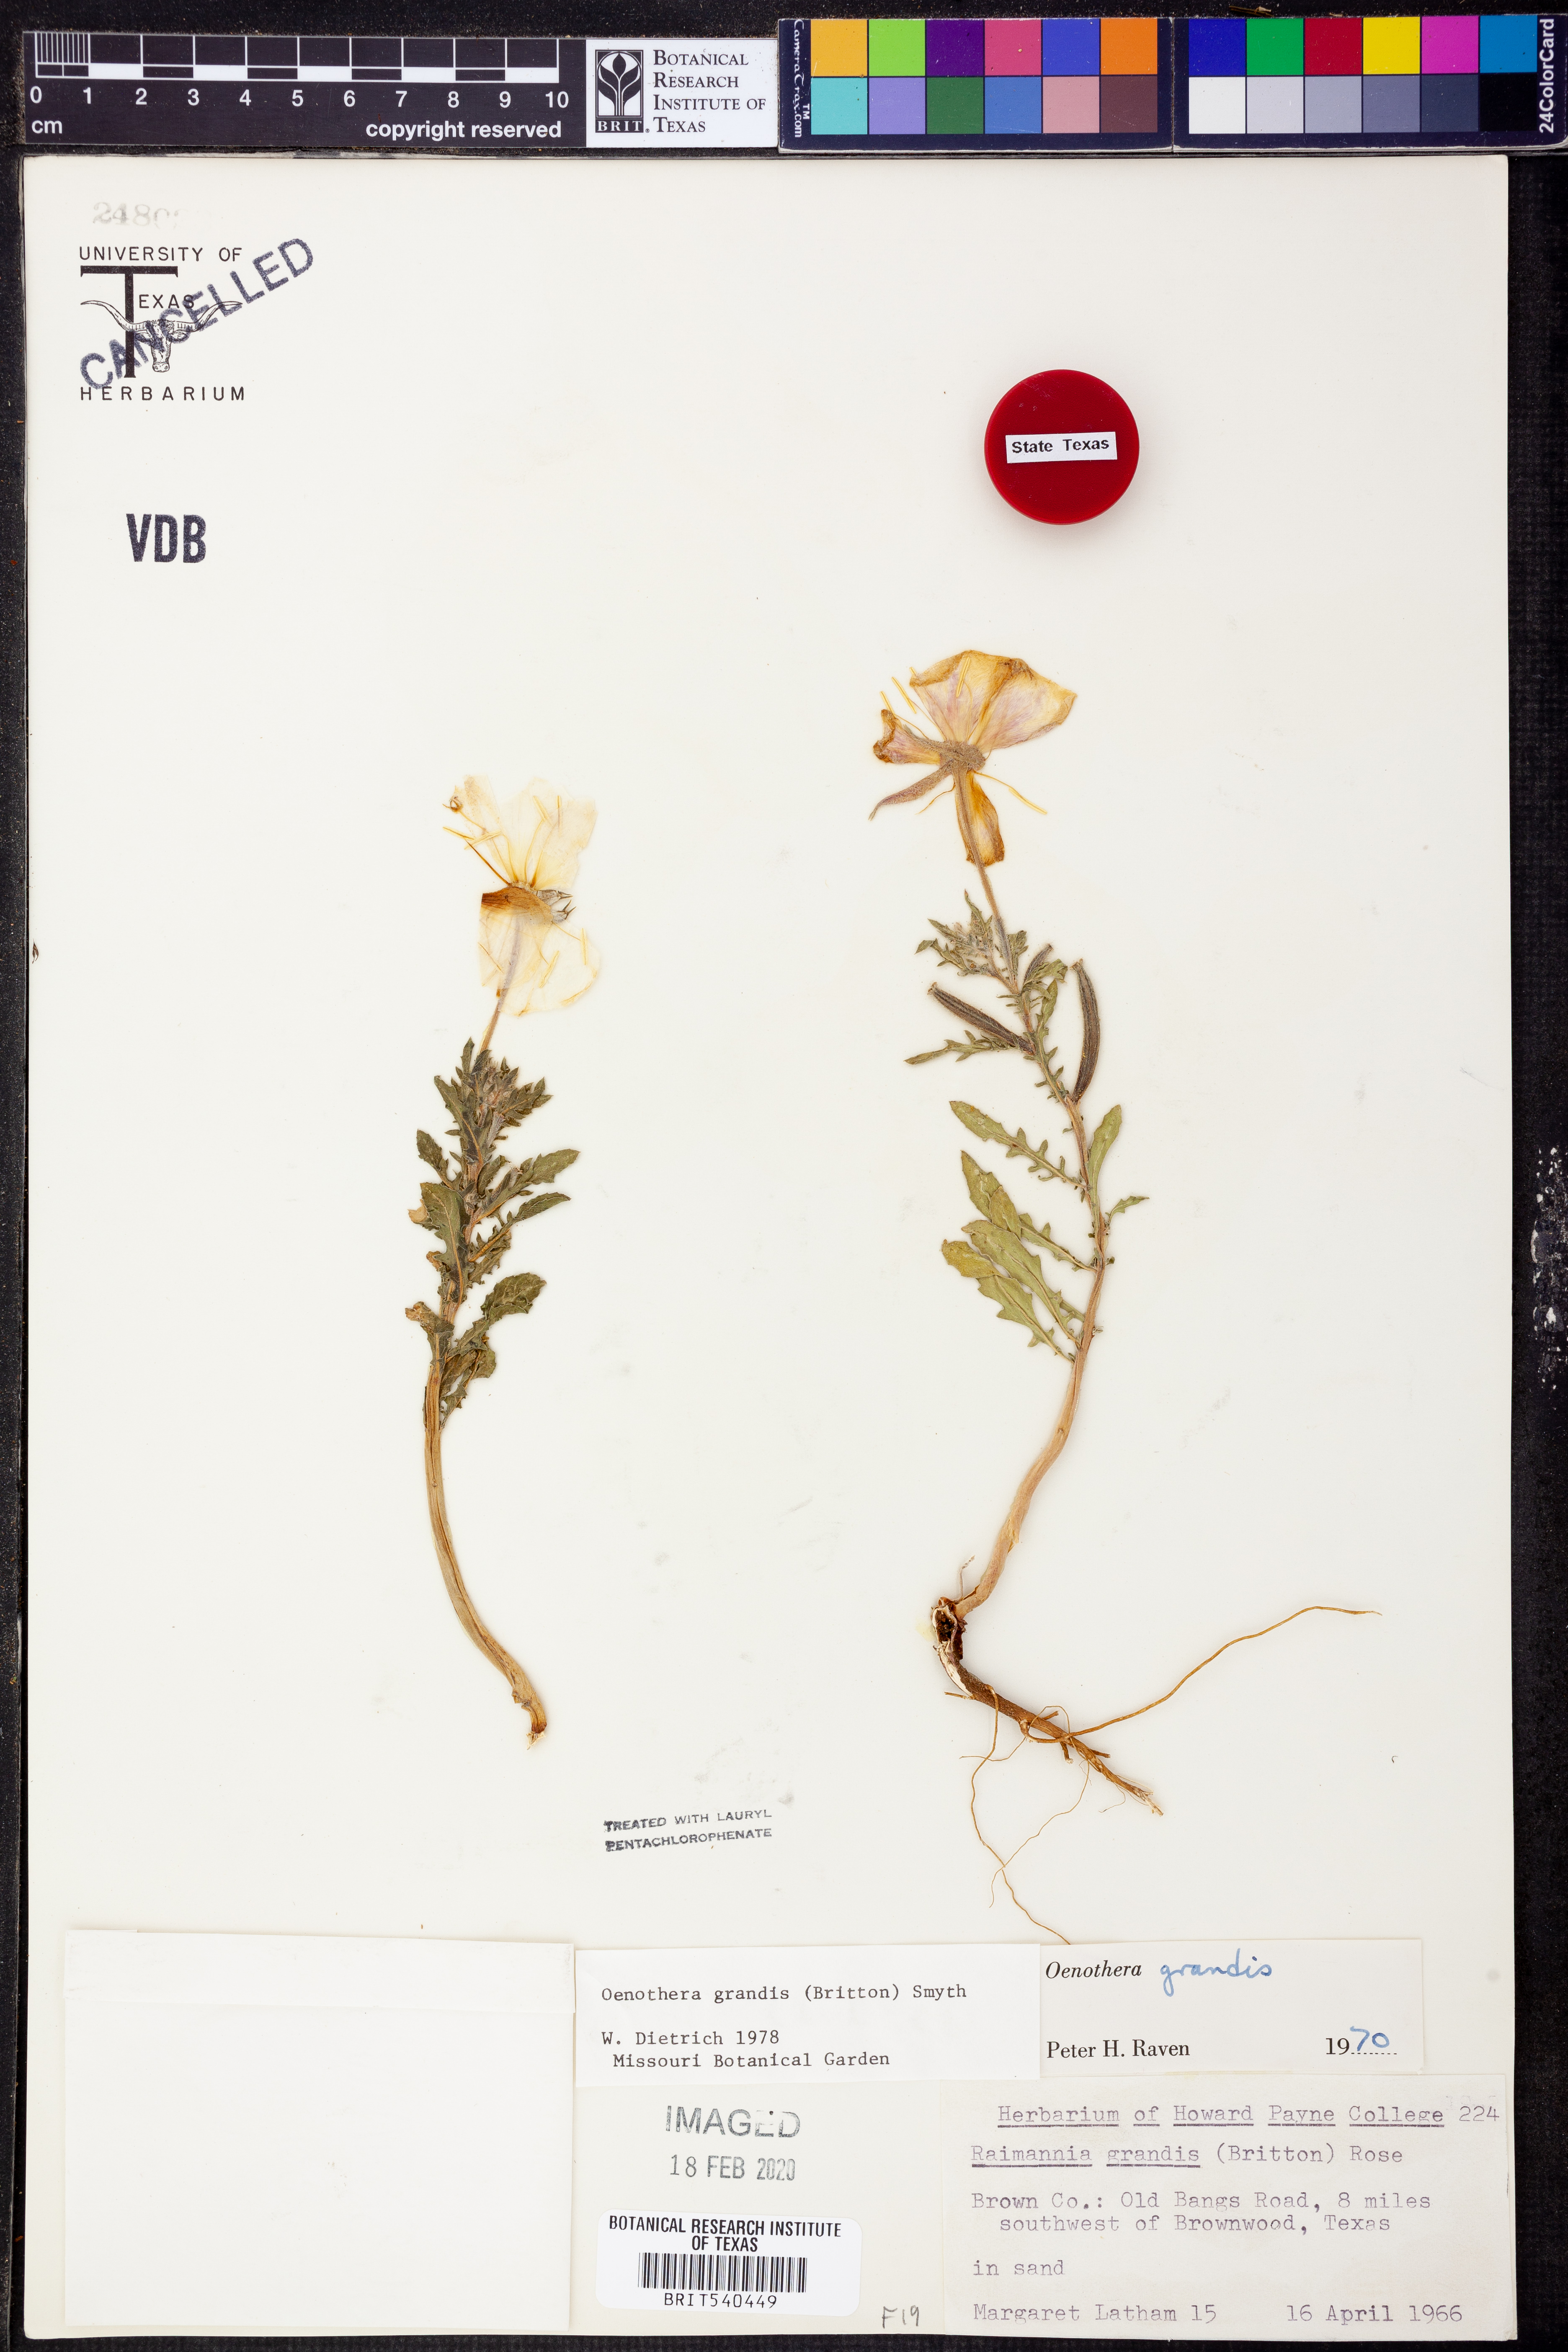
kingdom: Plantae
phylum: Tracheophyta
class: Magnoliopsida
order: Myrtales
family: Onagraceae
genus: Oenothera
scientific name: Oenothera grandis
